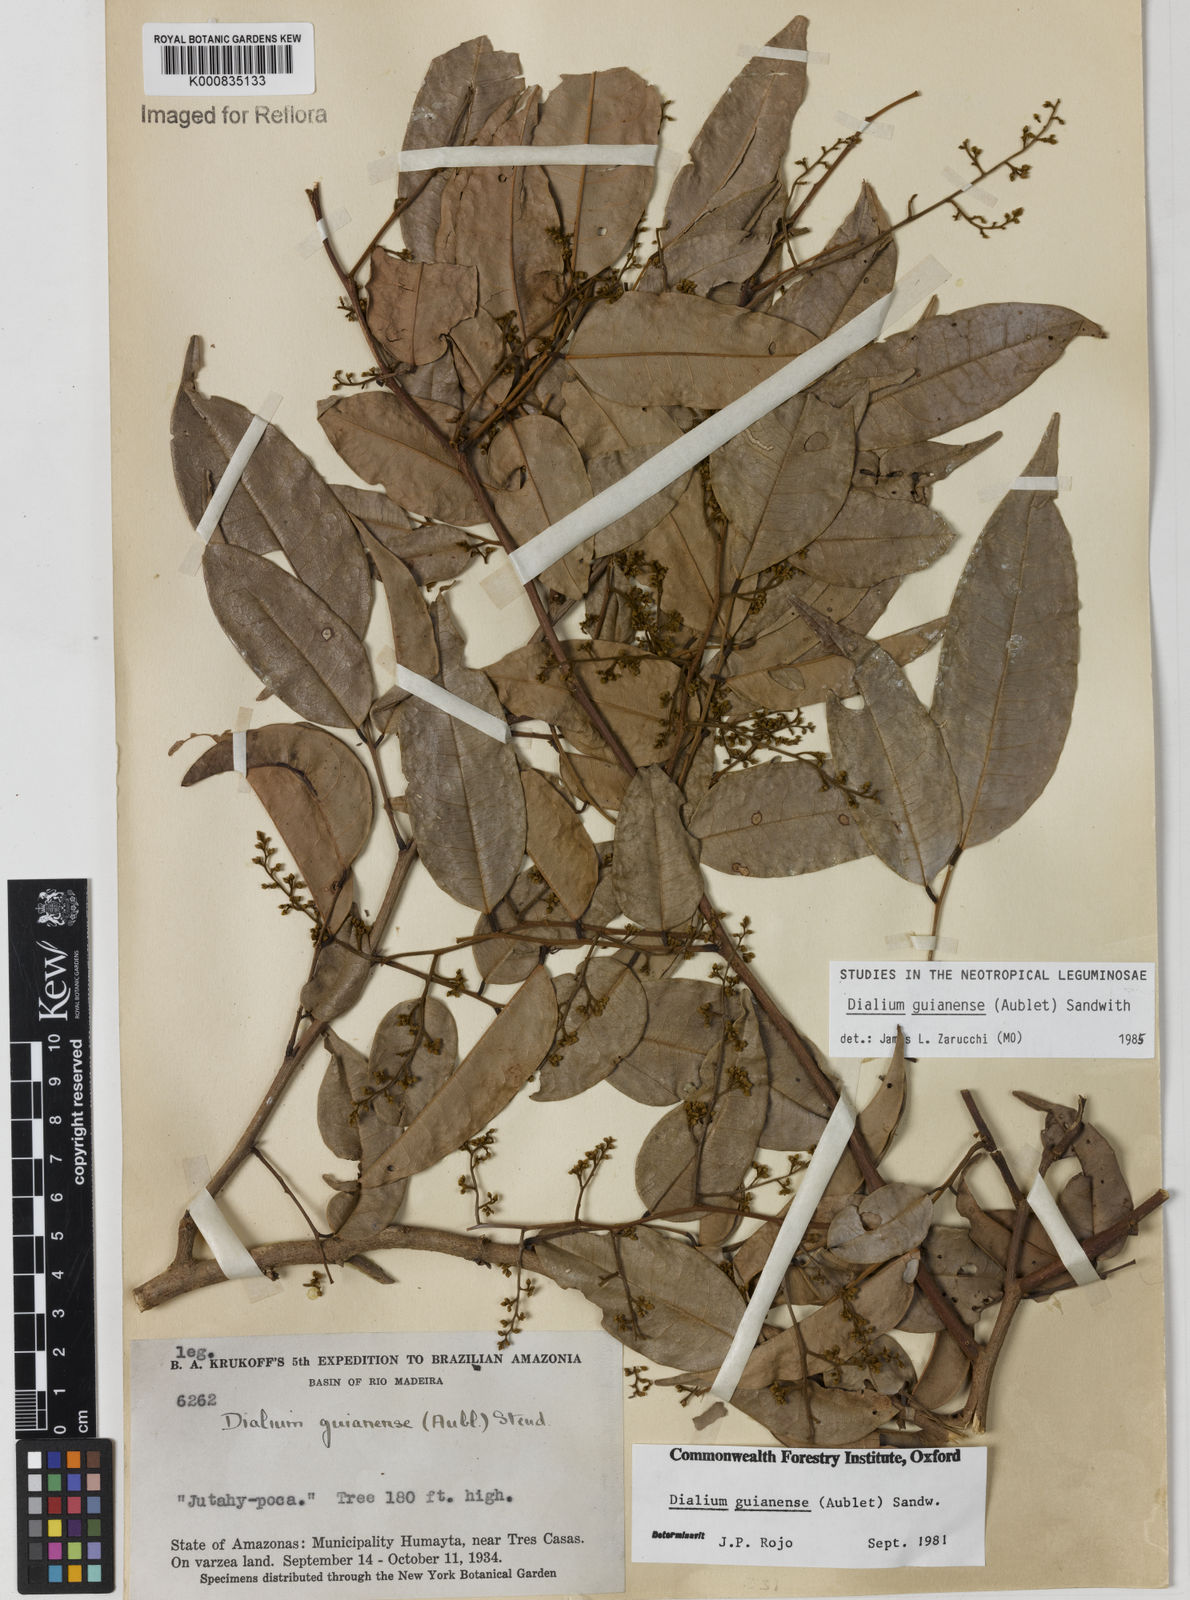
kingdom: Plantae
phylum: Tracheophyta
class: Magnoliopsida
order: Fabales
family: Fabaceae
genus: Dialium
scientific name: Dialium guianense
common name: Ironwood
